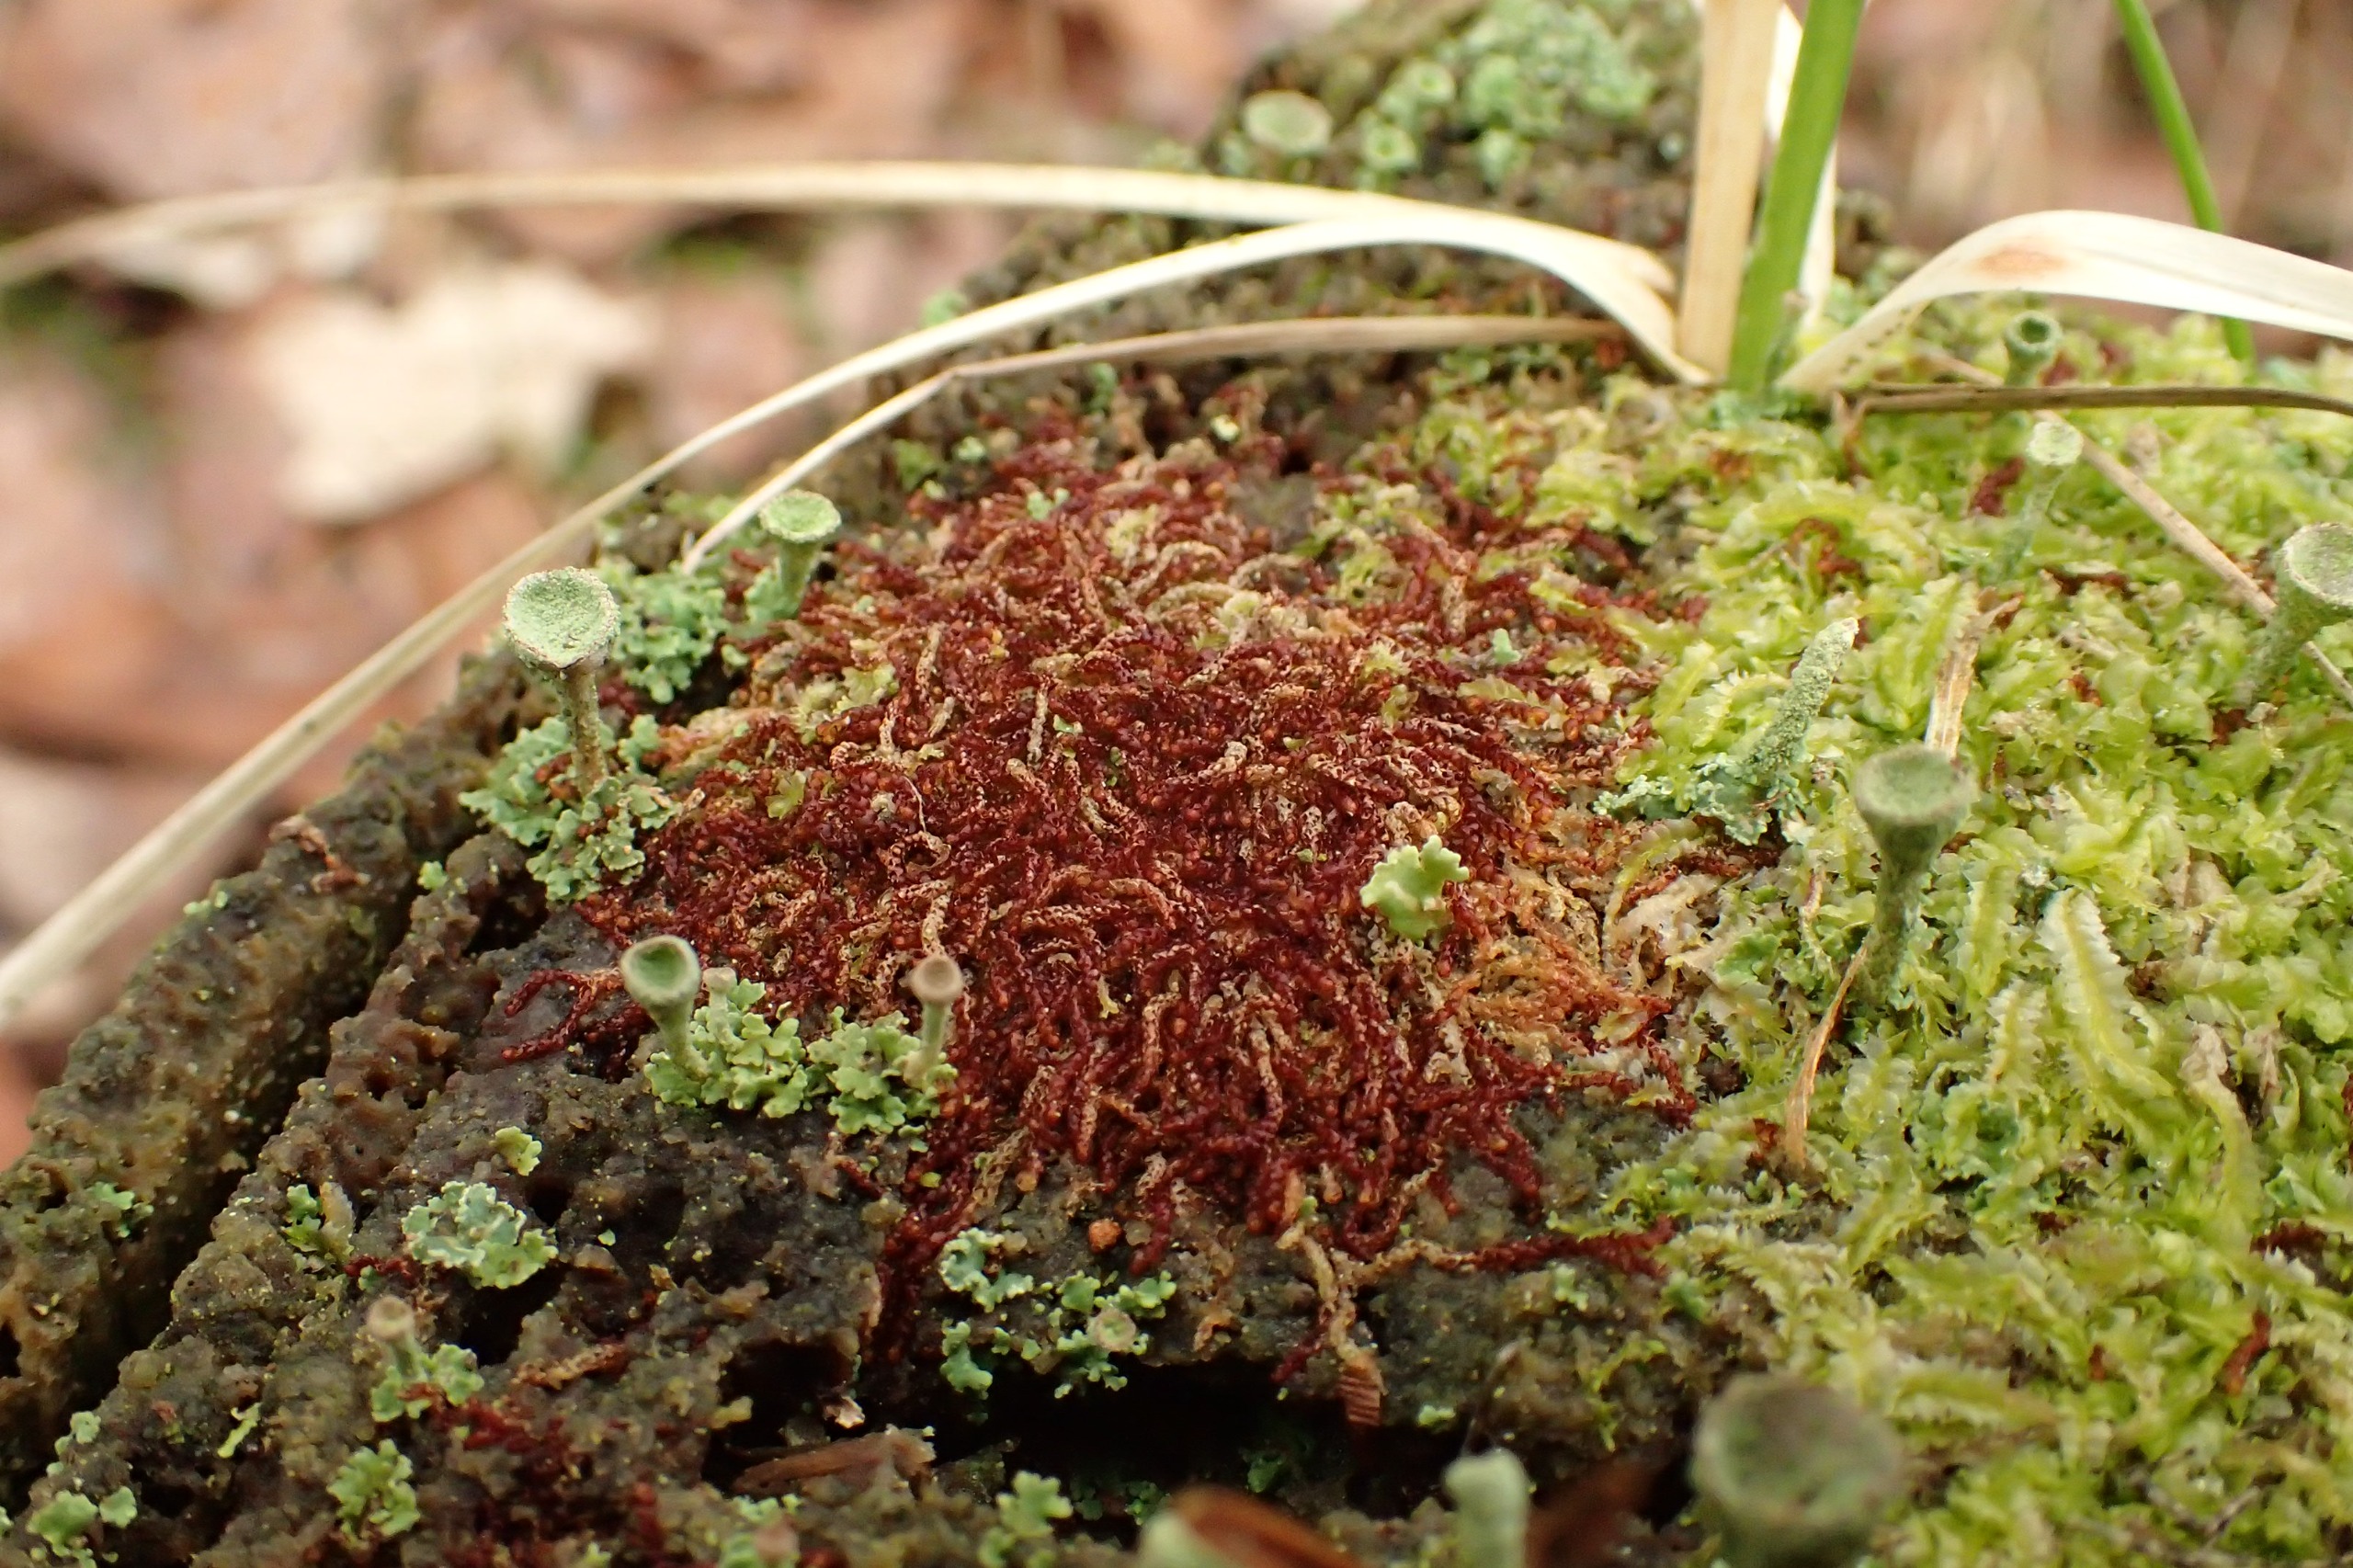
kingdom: Plantae
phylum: Marchantiophyta
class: Jungermanniopsida
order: Jungermanniales
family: Cephaloziaceae
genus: Nowellia
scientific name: Nowellia curvifolia
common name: Krumbladet stødmos
